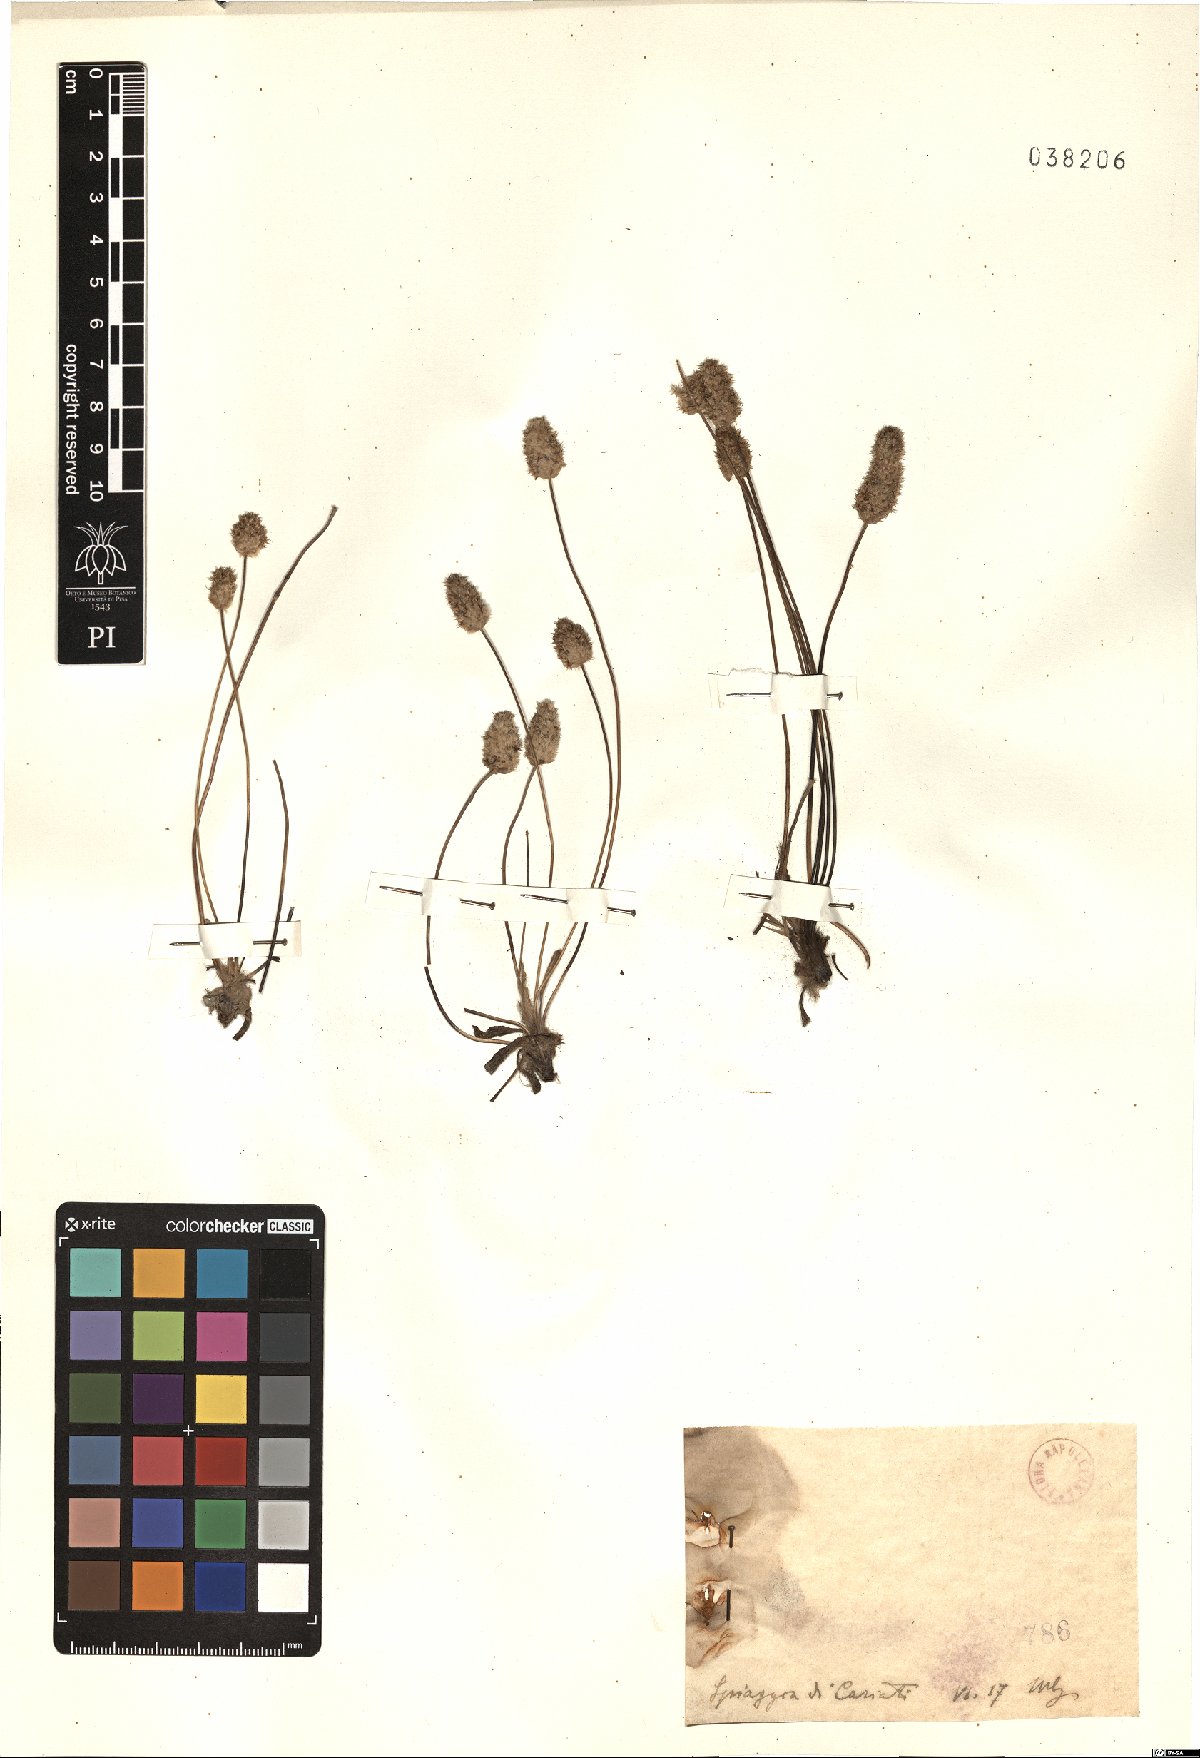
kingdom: Plantae
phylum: Tracheophyta
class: Magnoliopsida
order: Lamiales
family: Plantaginaceae
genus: Plantago
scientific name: Plantago
